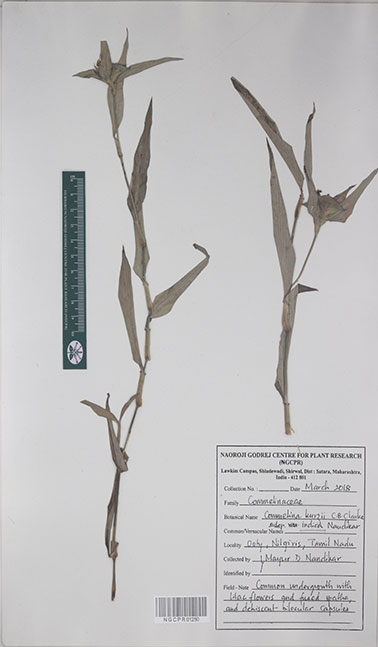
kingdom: Plantae
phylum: Tracheophyta
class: Liliopsida
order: Commelinales
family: Commelinaceae
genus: Commelina
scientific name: Commelina undulata
